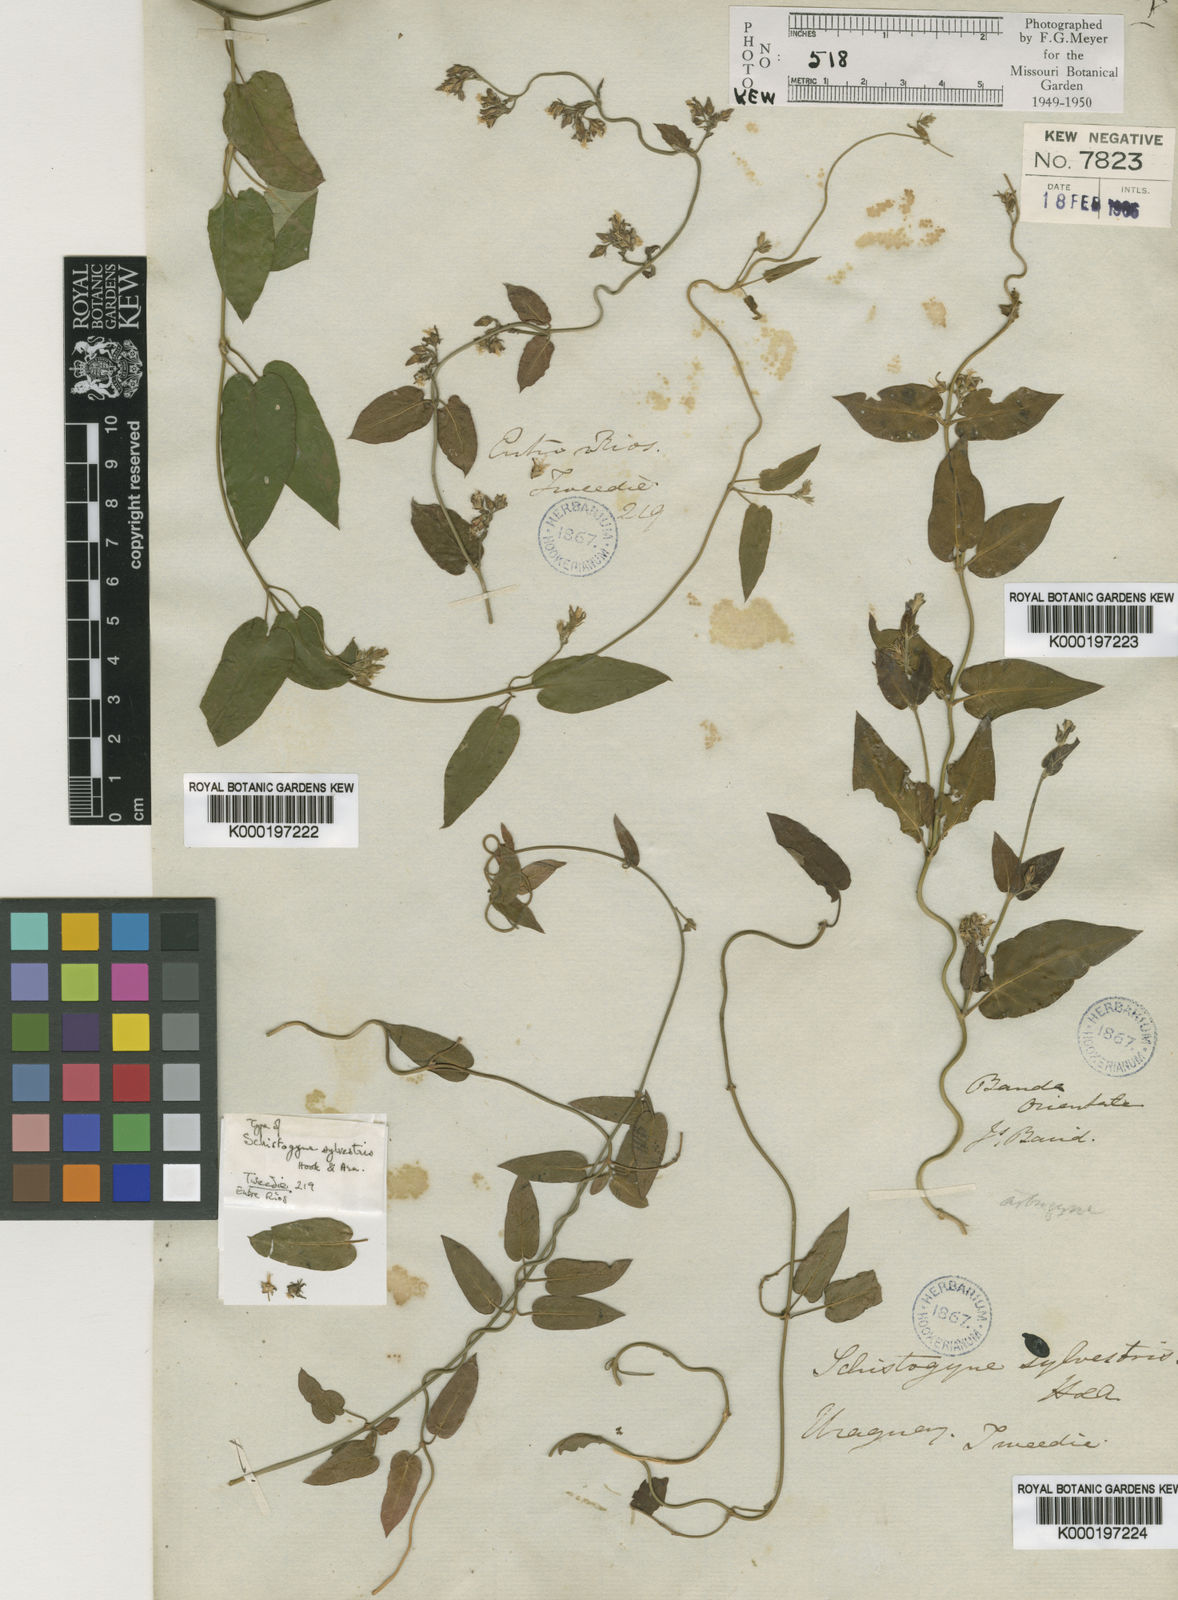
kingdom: Plantae
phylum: Tracheophyta
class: Magnoliopsida
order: Gentianales
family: Apocynaceae
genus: Oxypetalum
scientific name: Oxypetalum sylvestre
